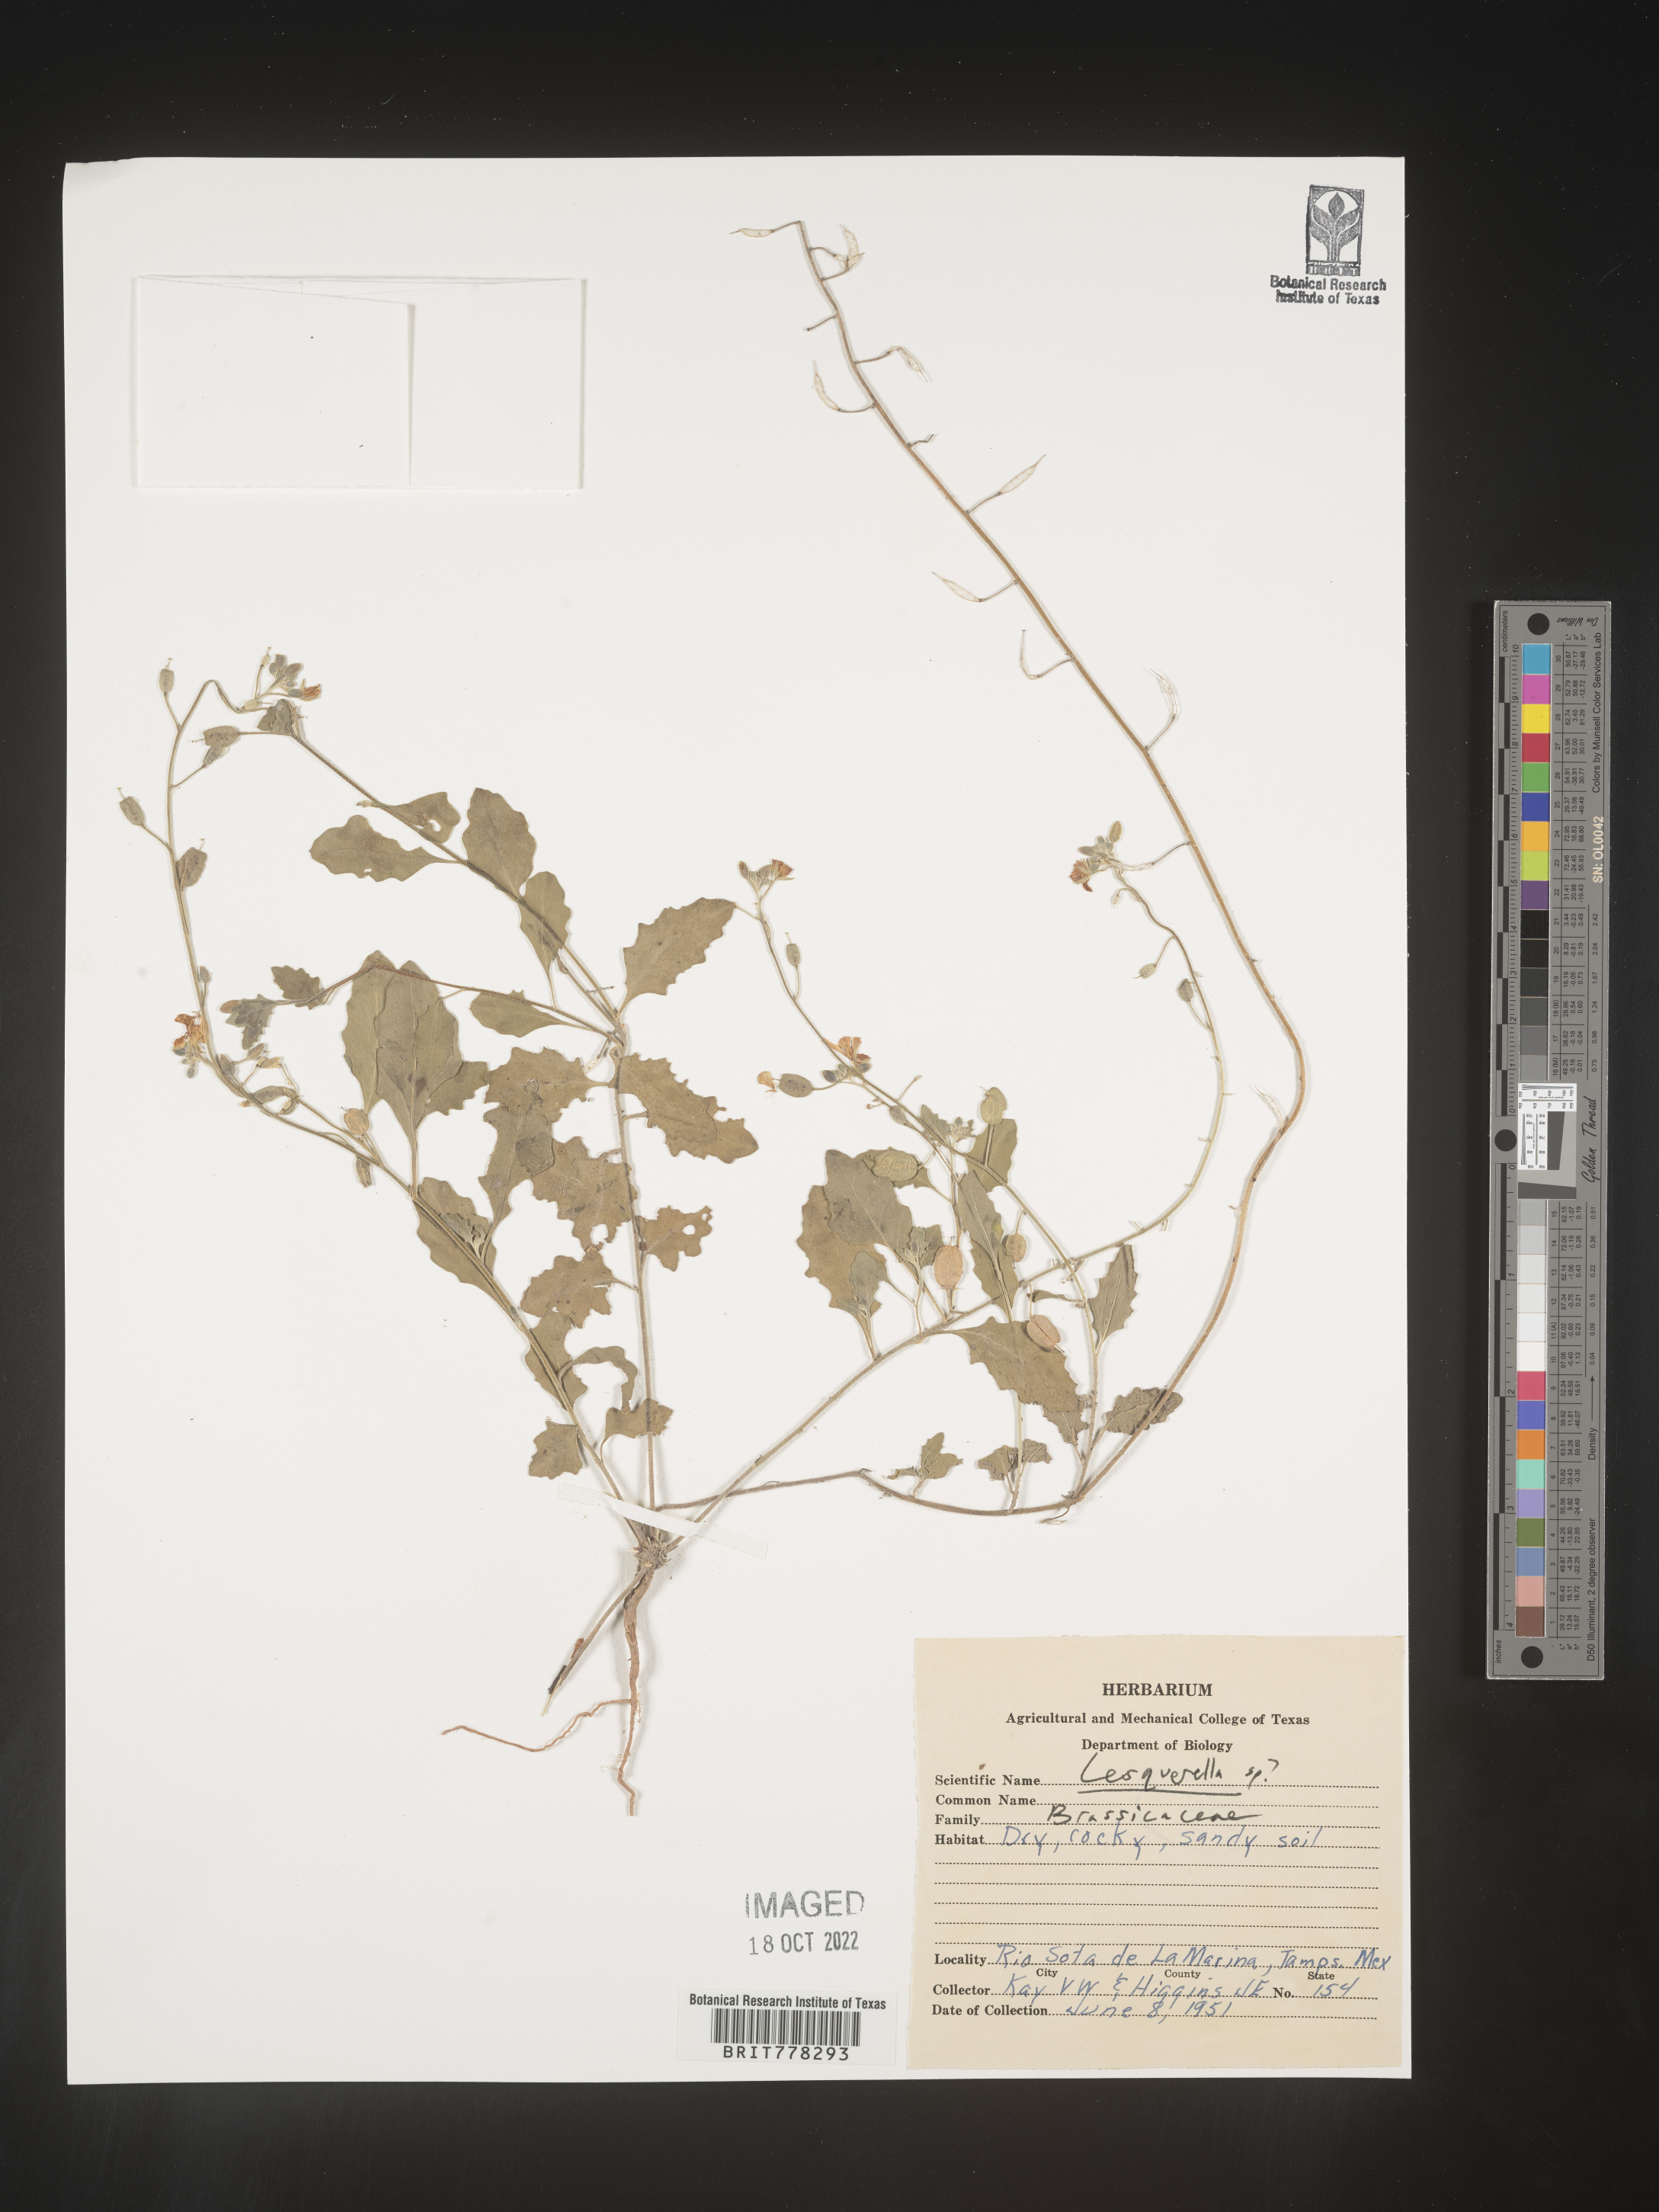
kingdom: Chromista
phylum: Cercozoa
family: Psammonobiotidae
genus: Lesquerella
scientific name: Lesquerella
